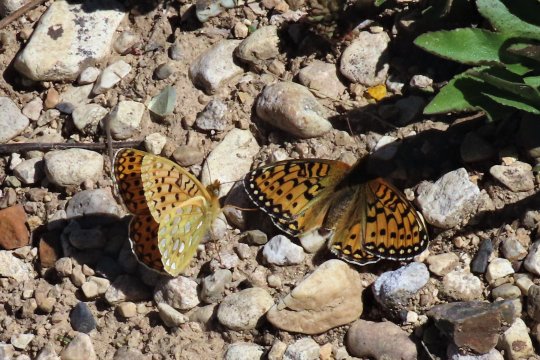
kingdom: Animalia
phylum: Arthropoda
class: Insecta
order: Lepidoptera
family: Nymphalidae
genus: Speyeria
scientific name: Speyeria mormonia
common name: Mormon Fritillary
